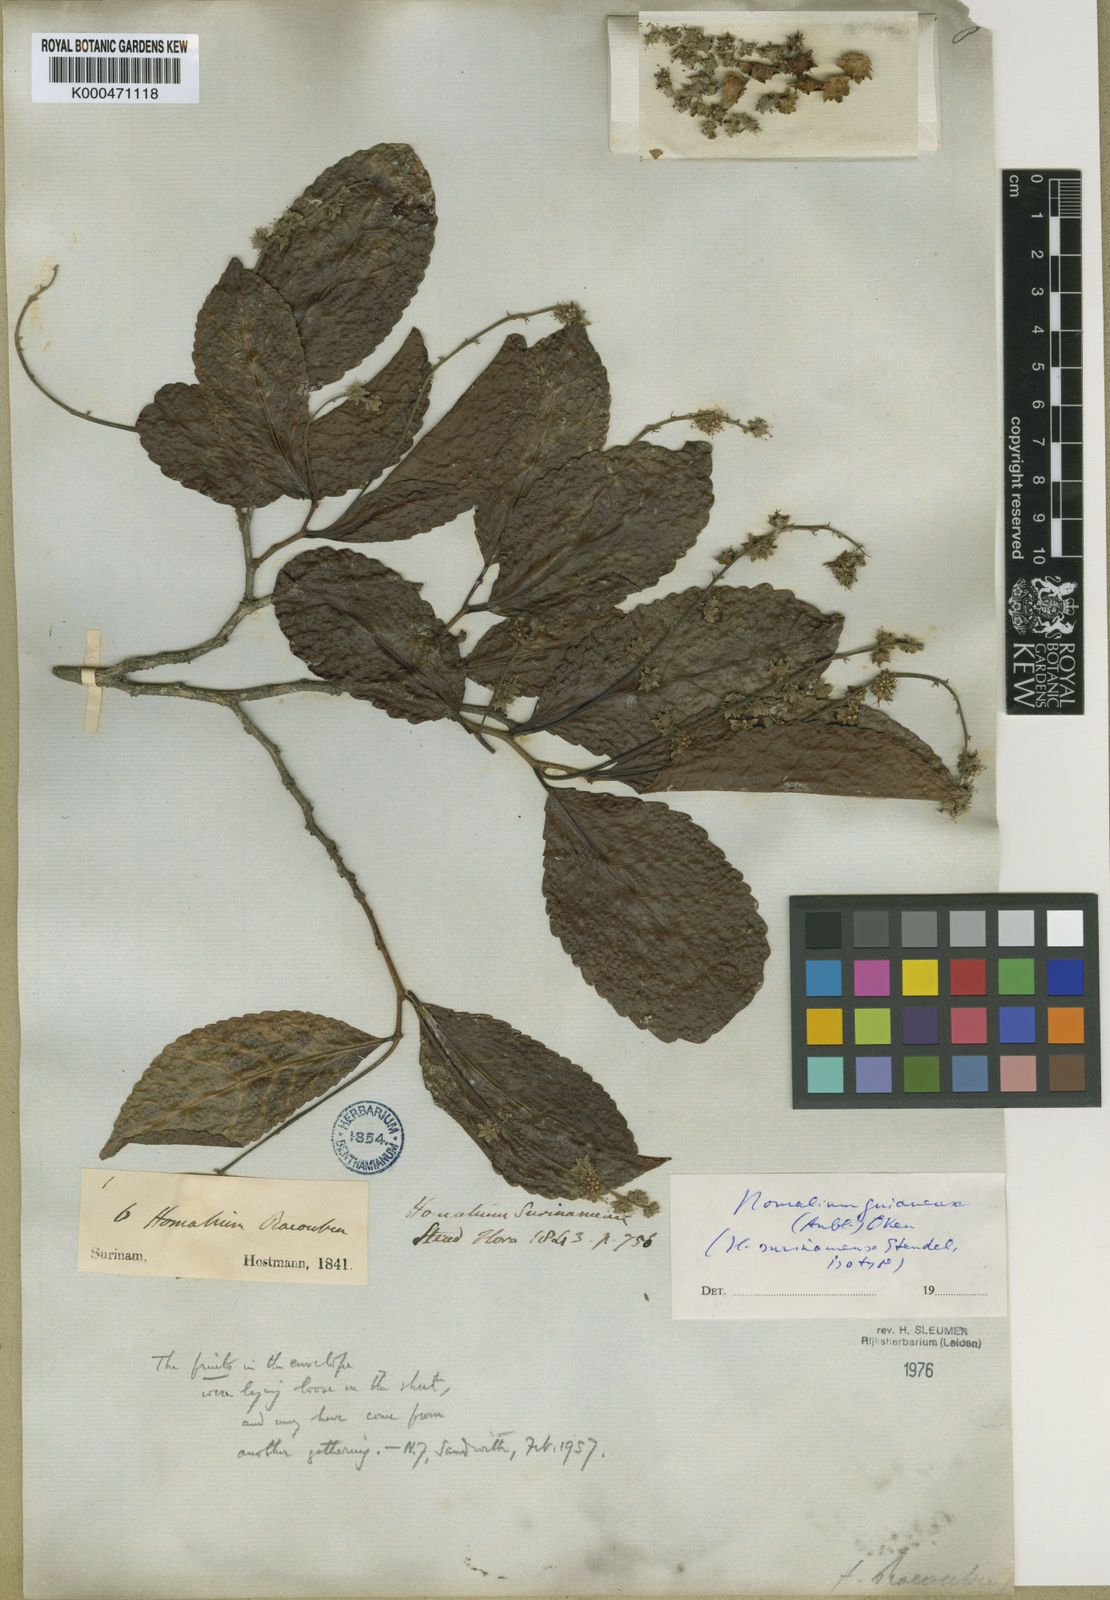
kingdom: Plantae
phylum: Tracheophyta
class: Magnoliopsida
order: Malpighiales
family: Salicaceae
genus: Homalium
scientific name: Homalium guianense
